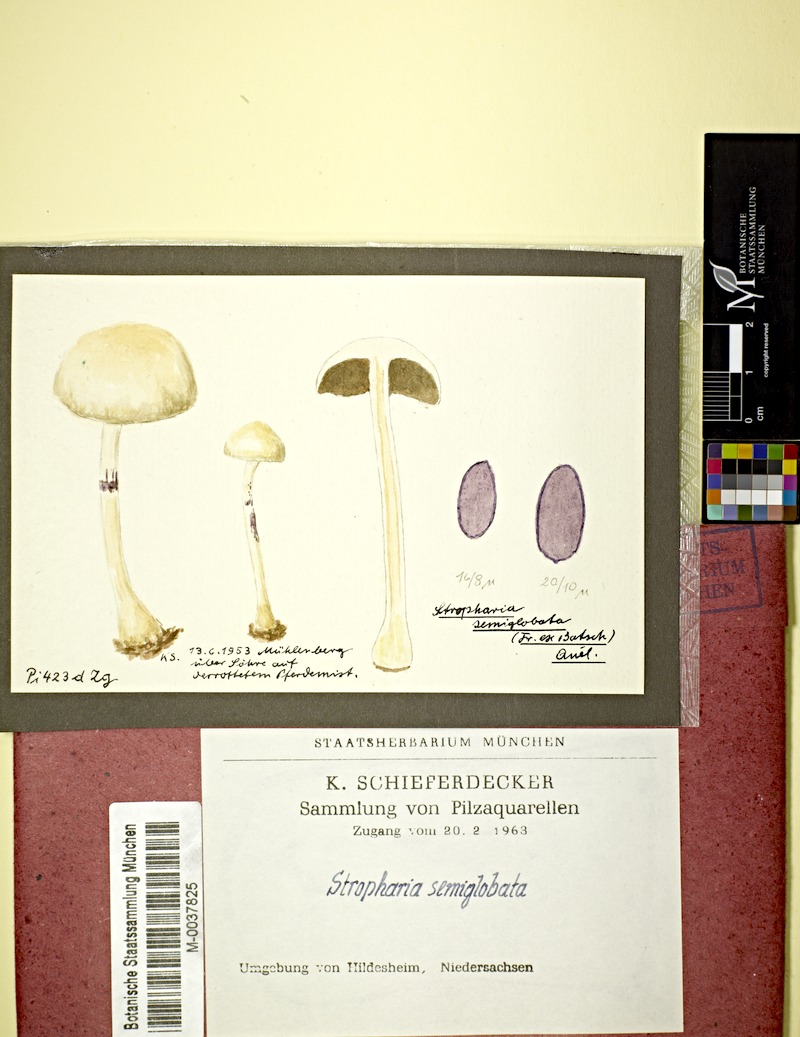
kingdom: Fungi
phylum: Basidiomycota
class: Agaricomycetes
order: Agaricales
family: Strophariaceae
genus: Protostropharia
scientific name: Protostropharia semiglobata
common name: Dung roundhead
